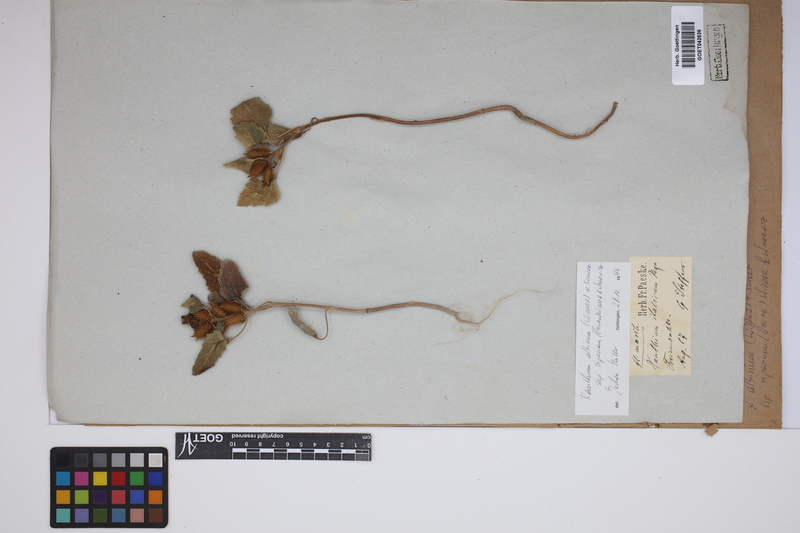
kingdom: Plantae
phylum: Tracheophyta
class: Magnoliopsida
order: Asterales
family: Asteraceae
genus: Xanthium
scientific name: Xanthium orientale
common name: Californian burr
